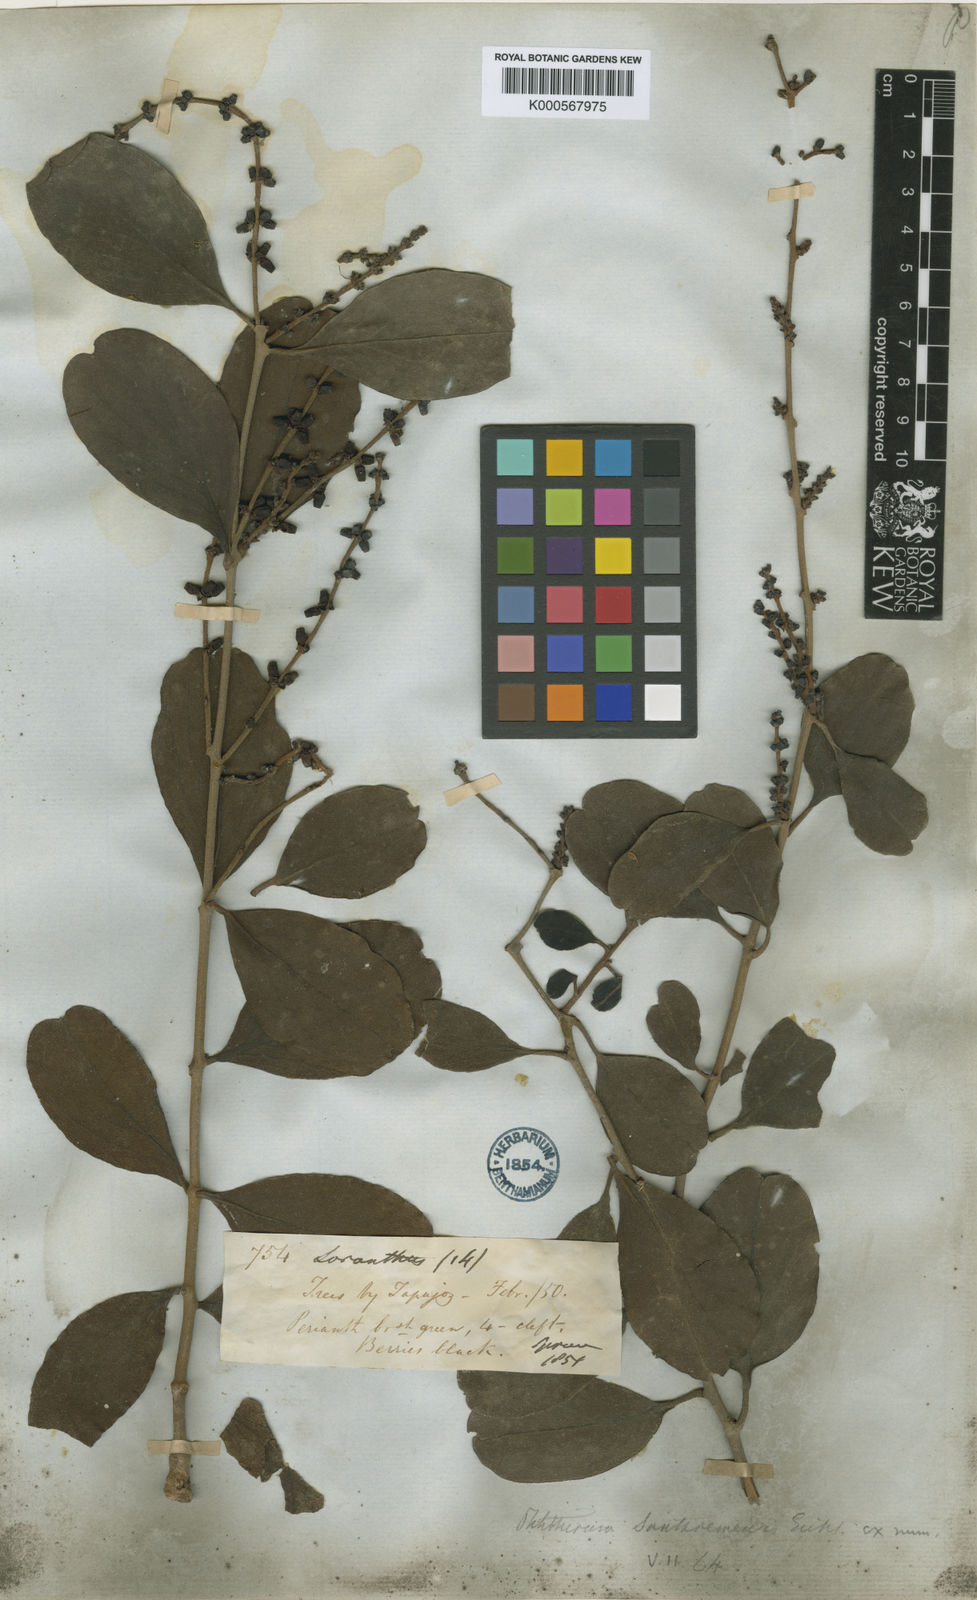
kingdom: Plantae
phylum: Tracheophyta
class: Magnoliopsida
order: Santalales
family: Loranthaceae
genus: Passovia
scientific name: Passovia santaremensis
